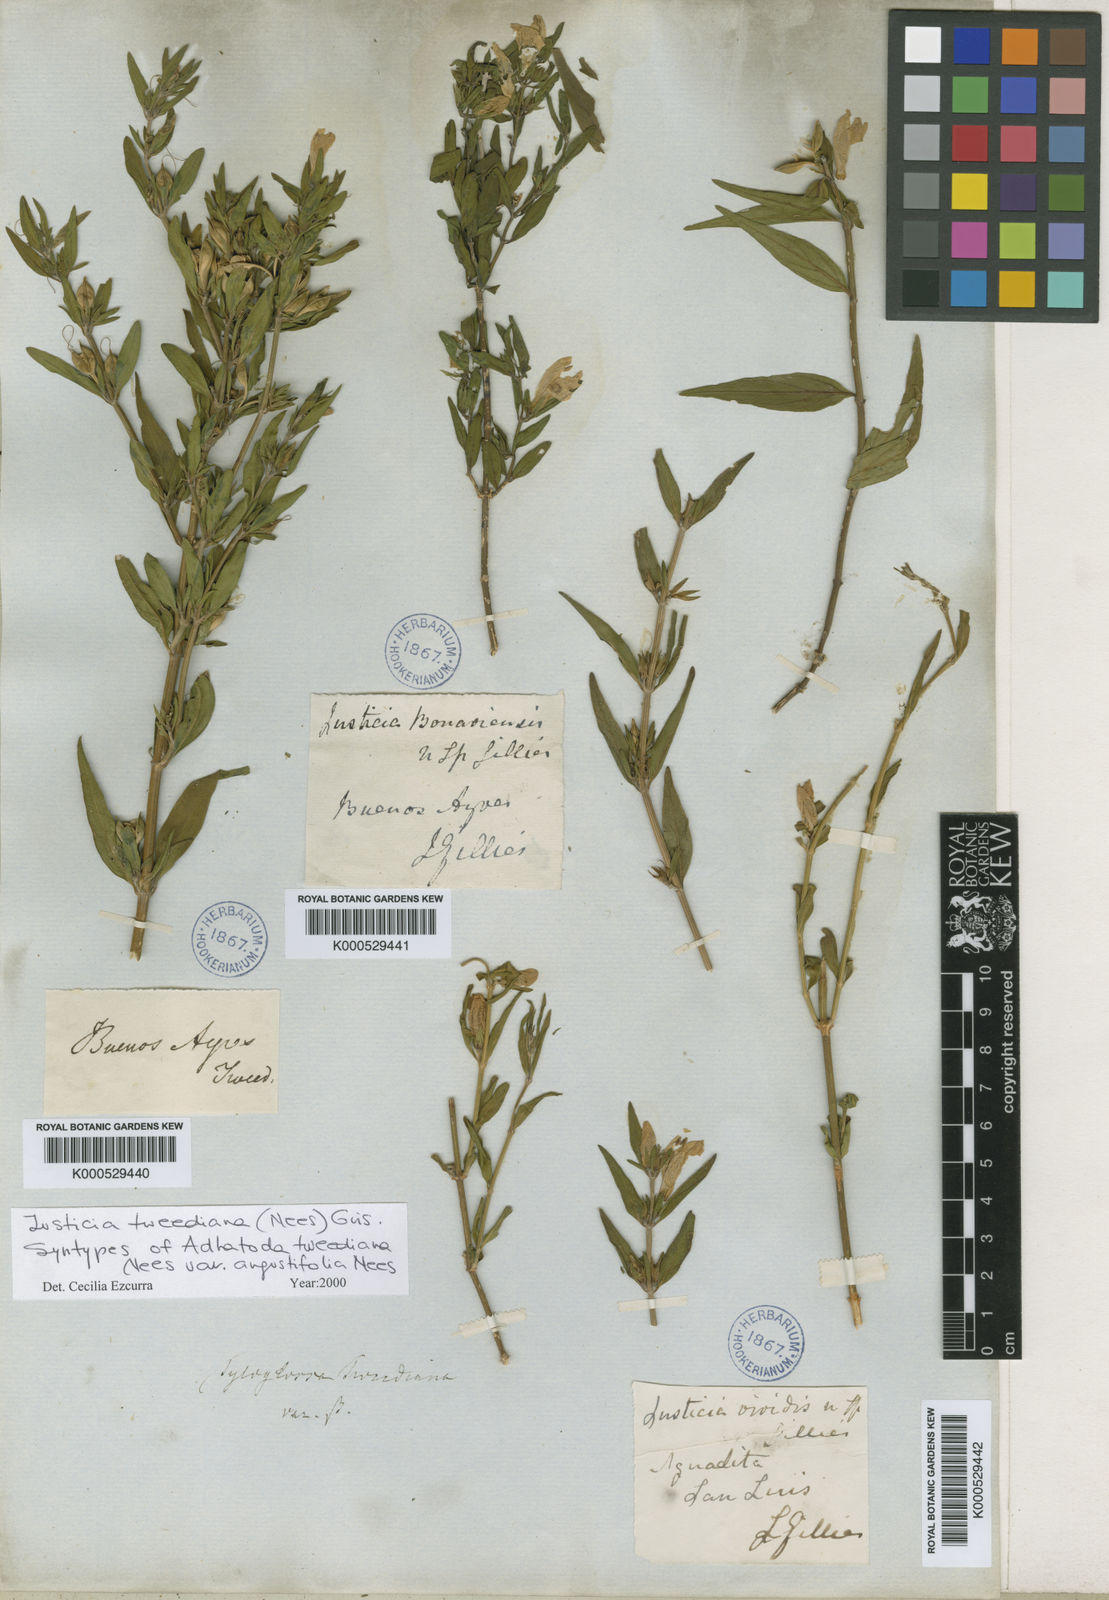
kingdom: Plantae
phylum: Tracheophyta
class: Magnoliopsida
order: Lamiales
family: Acanthaceae
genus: Justicia
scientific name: Justicia
